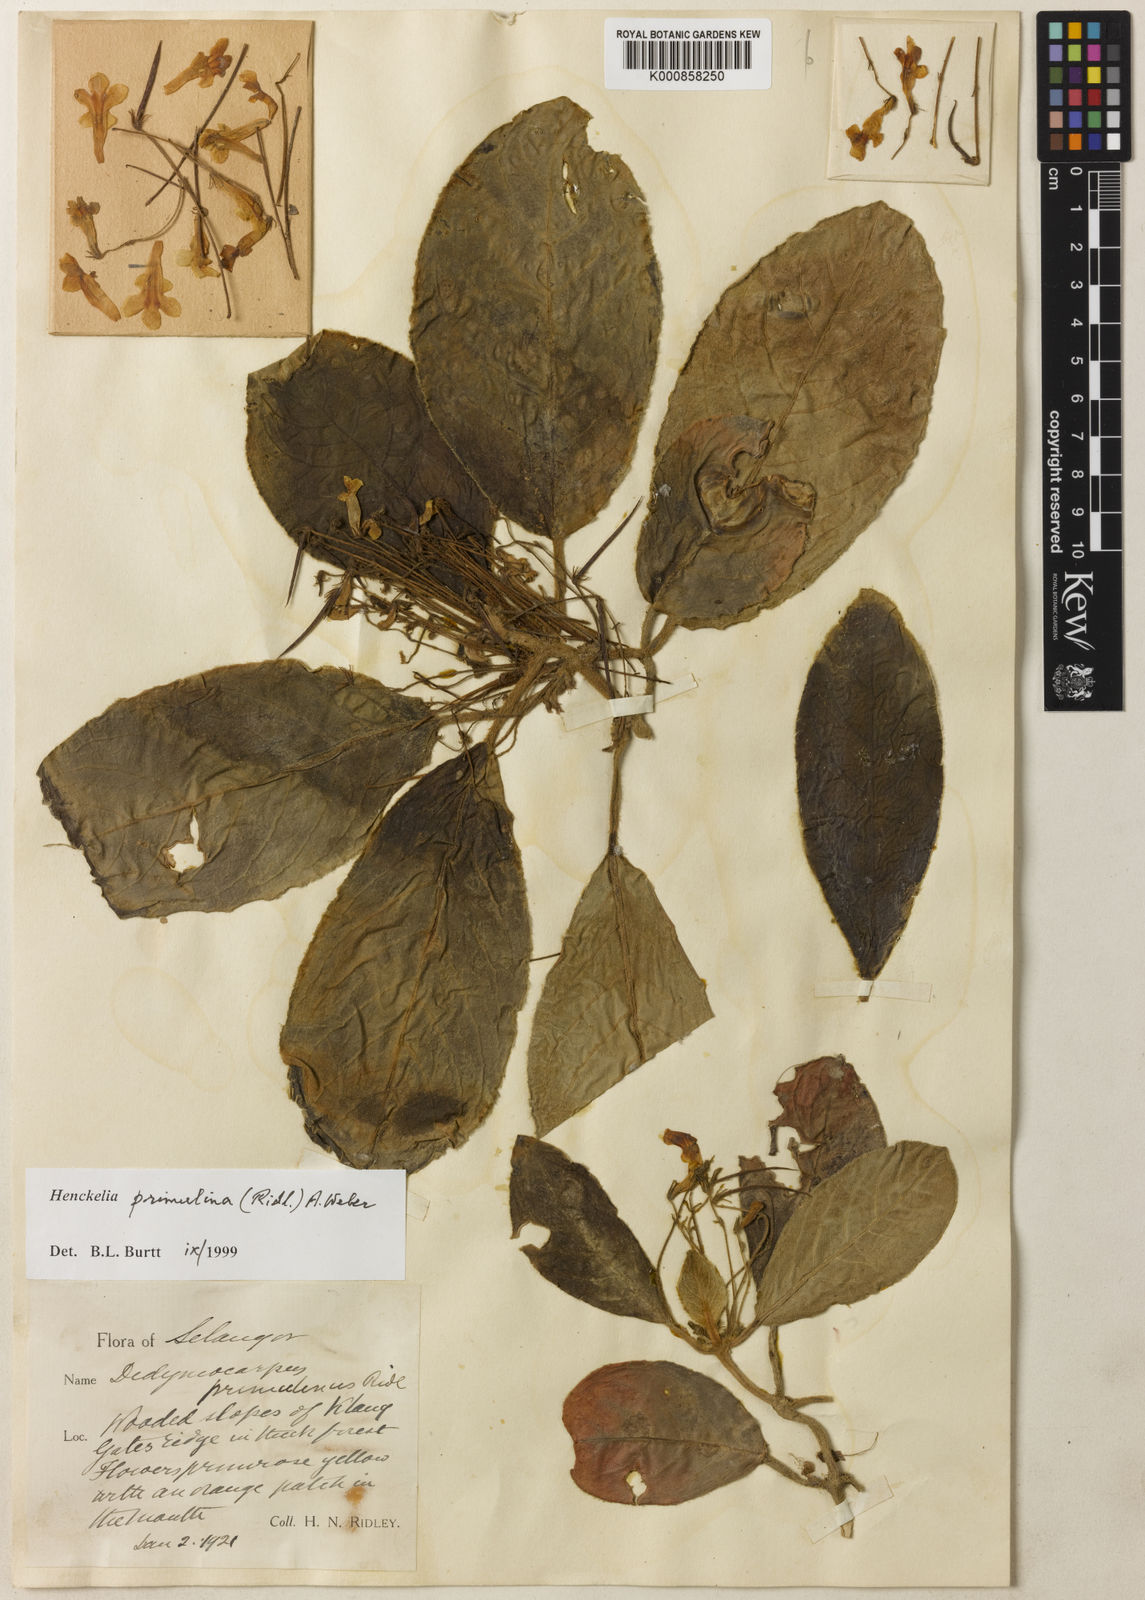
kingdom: Plantae
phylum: Tracheophyta
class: Magnoliopsida
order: Lamiales
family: Gesneriaceae
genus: Codonoboea
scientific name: Codonoboea primulina
